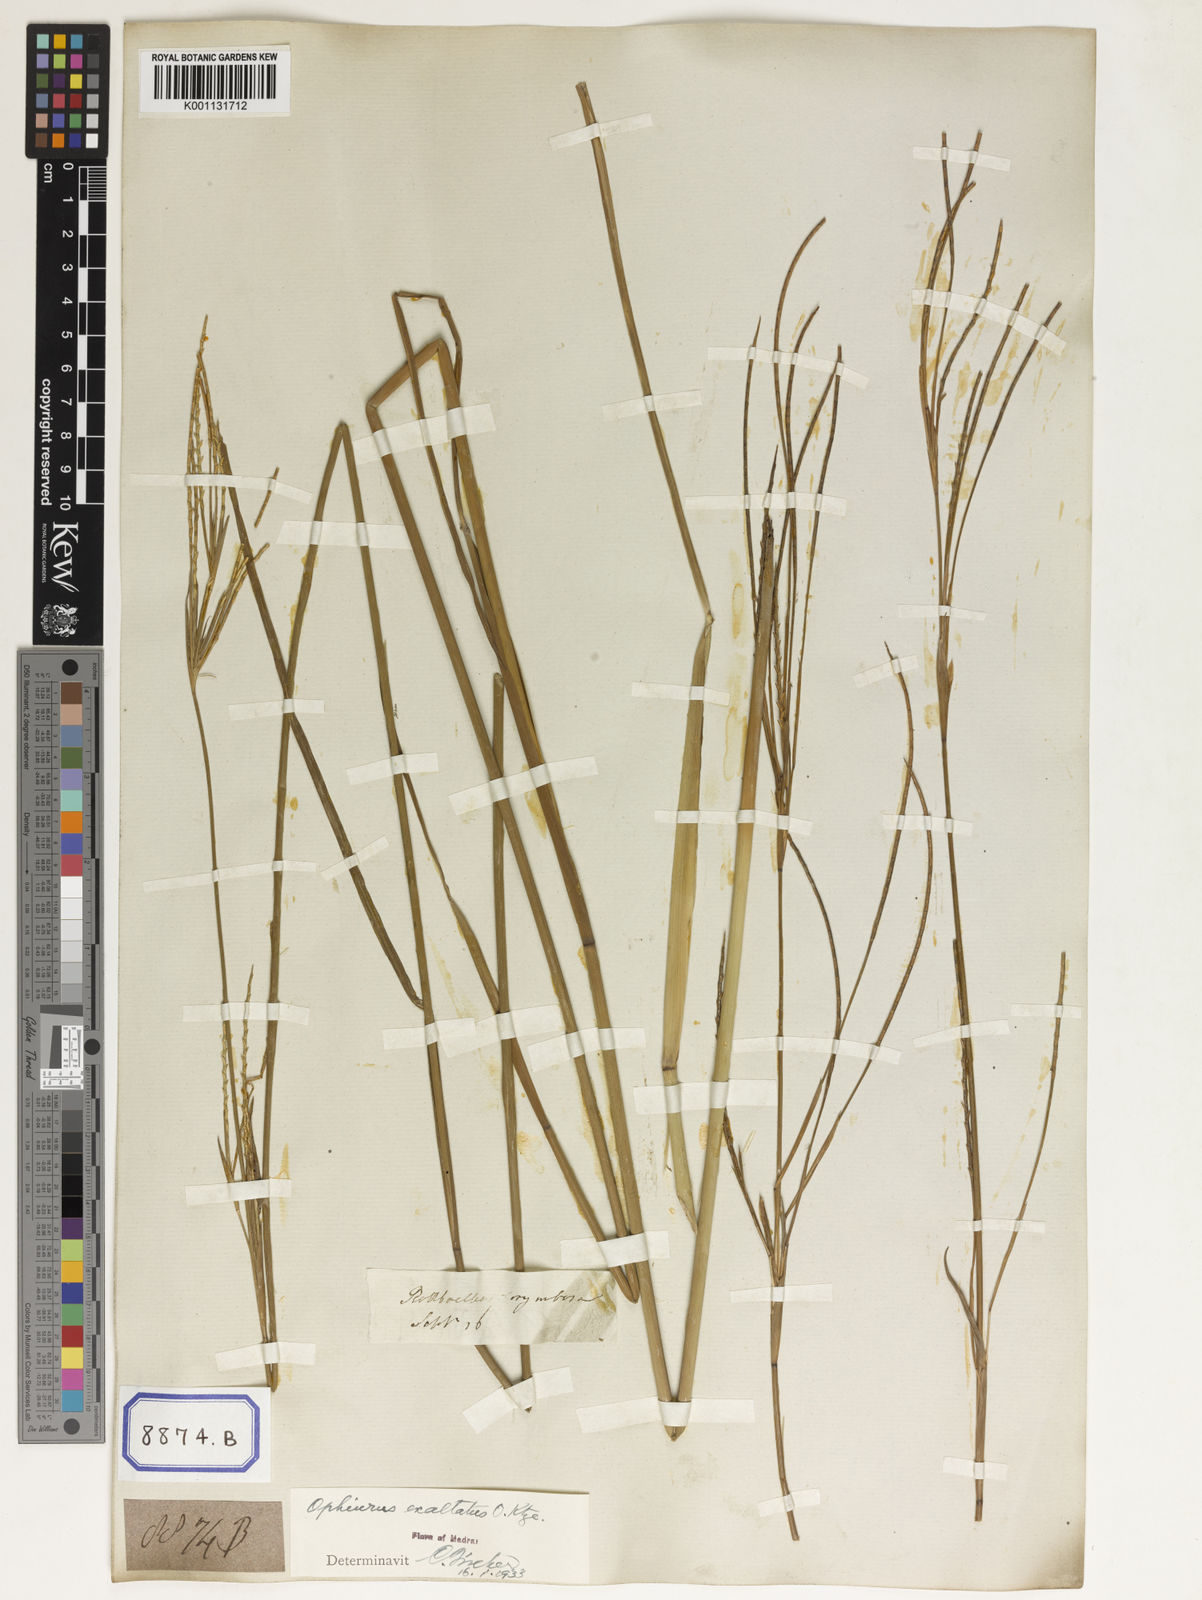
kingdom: Plantae
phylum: Tracheophyta
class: Liliopsida
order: Poales
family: Poaceae
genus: Ophiuros
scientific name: Ophiuros
